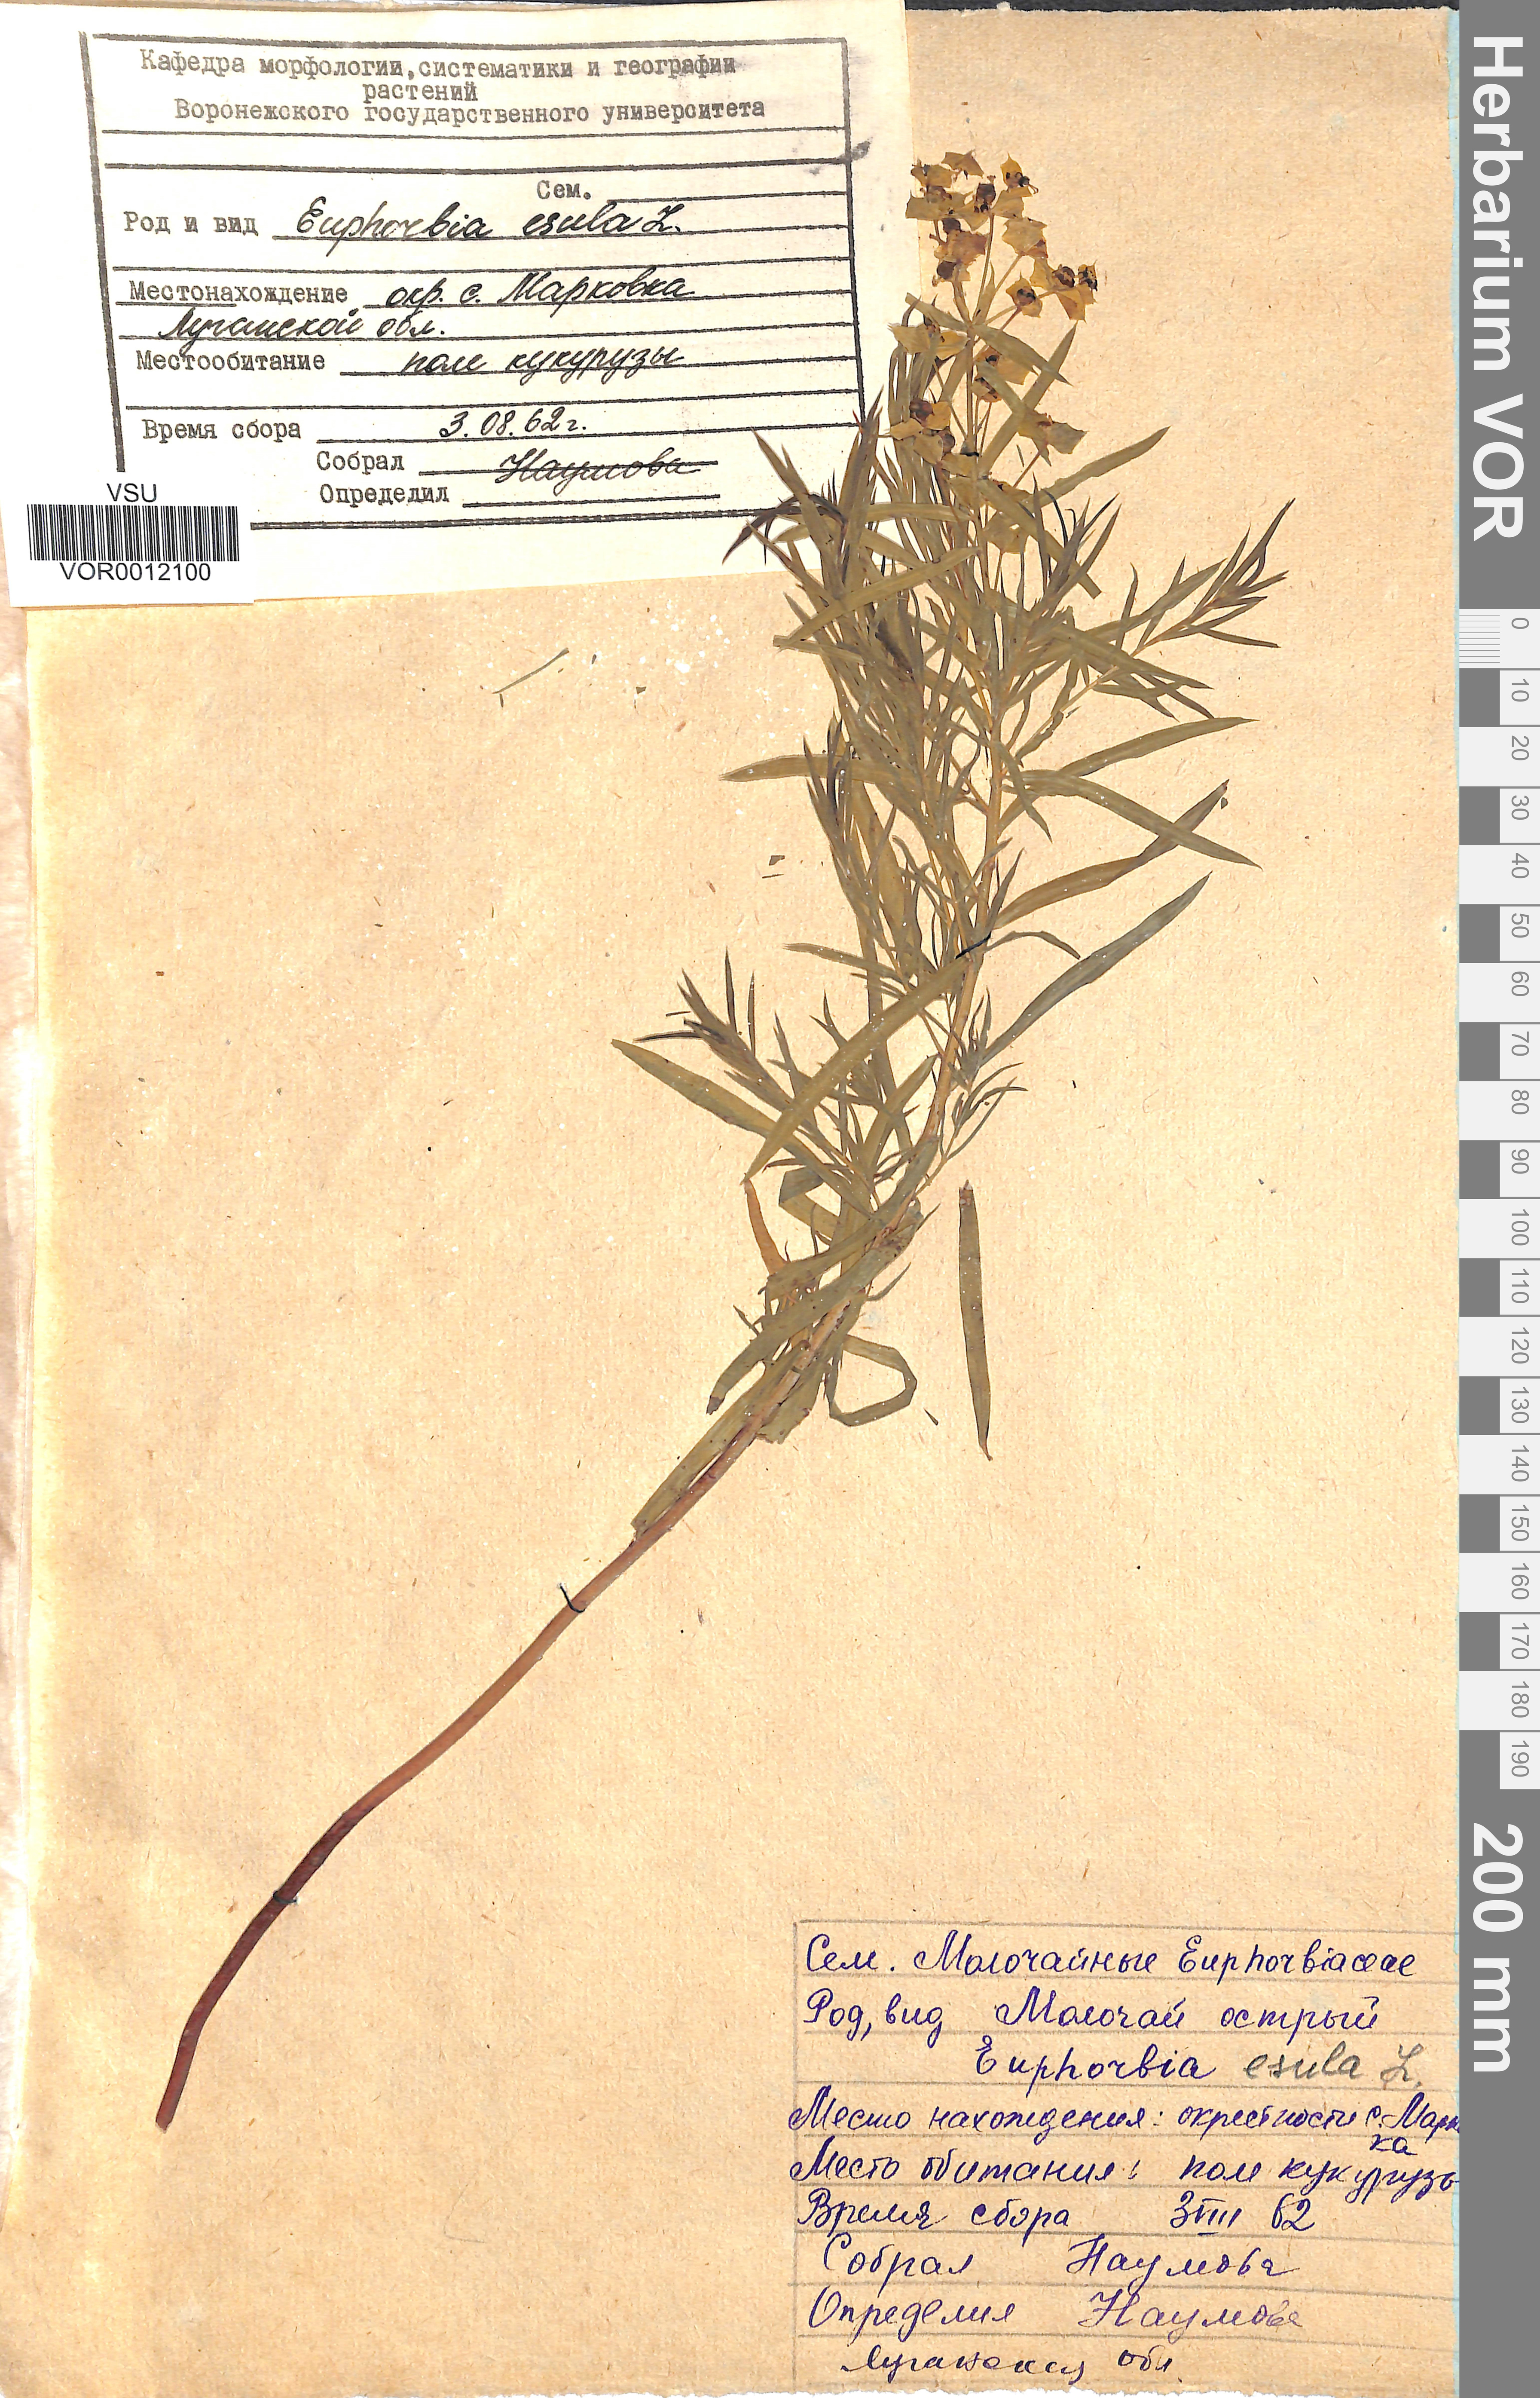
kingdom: Plantae
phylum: Tracheophyta
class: Magnoliopsida
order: Malpighiales
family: Euphorbiaceae
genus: Euphorbia
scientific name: Euphorbia esula
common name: Leafy spurge
